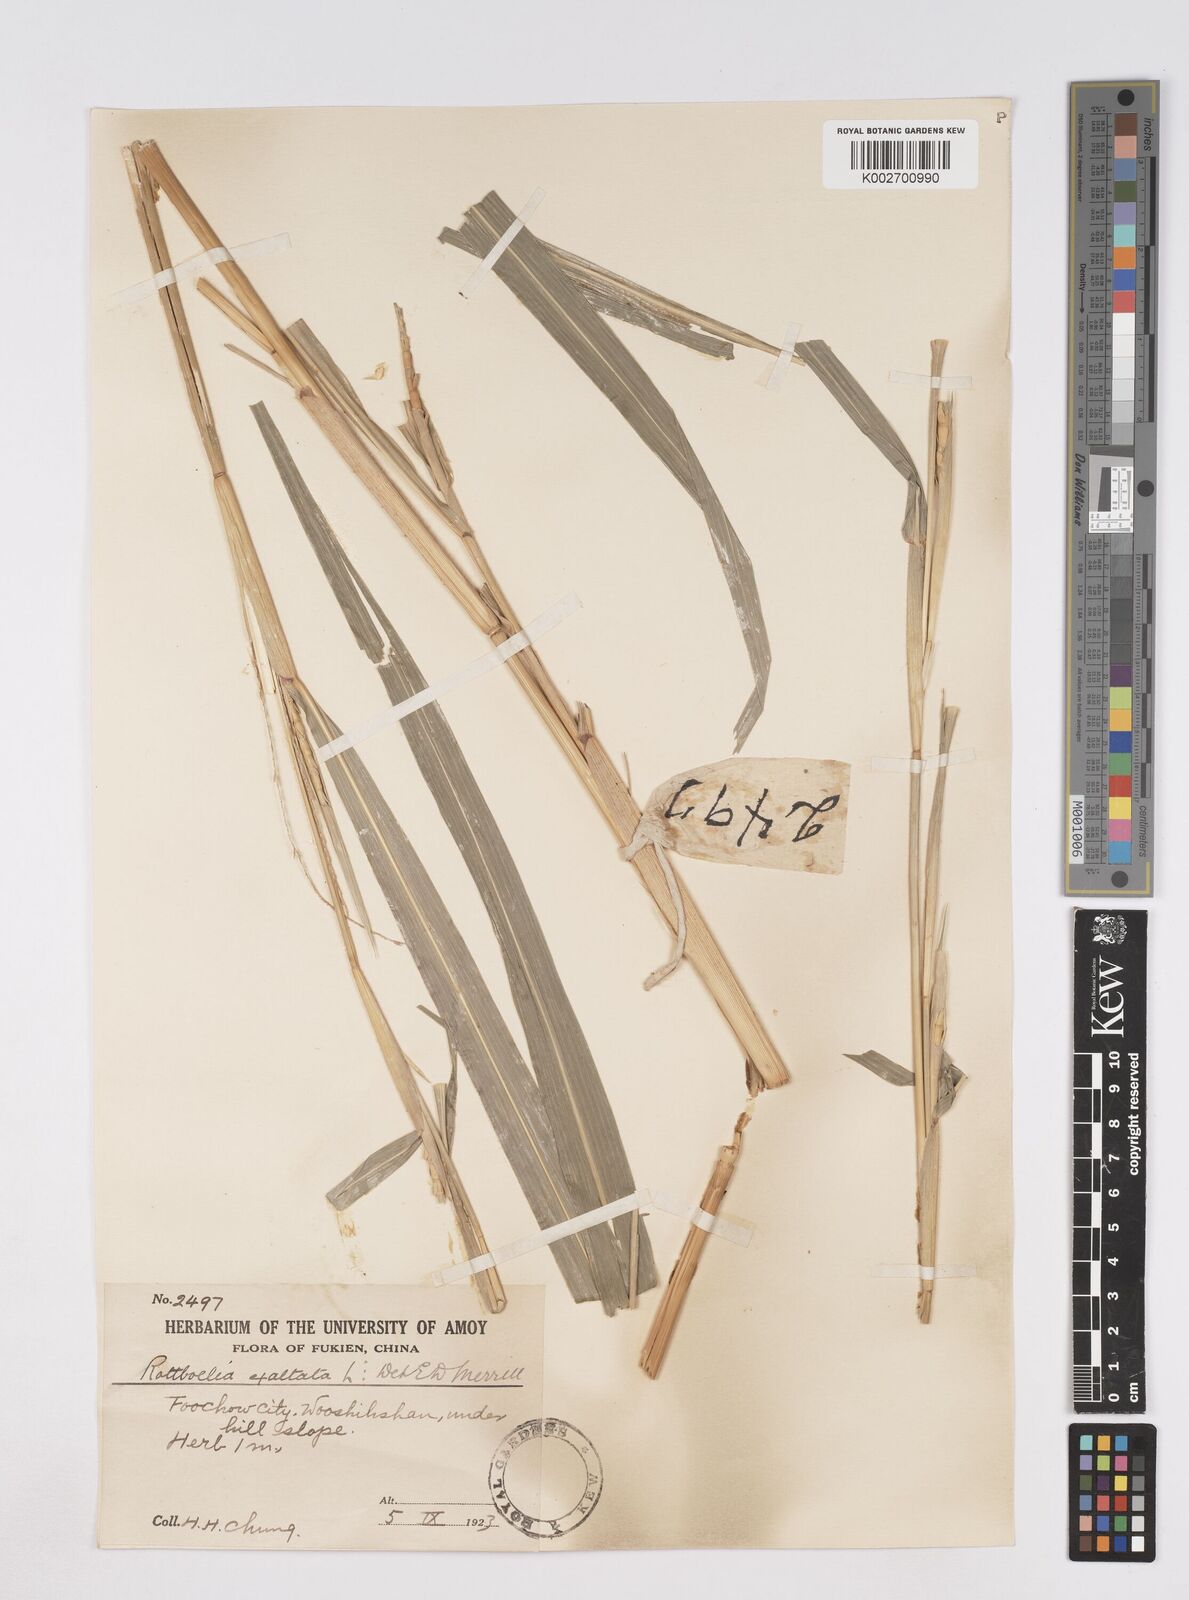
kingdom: Plantae
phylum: Tracheophyta
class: Liliopsida
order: Poales
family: Poaceae
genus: Ophiuros
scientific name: Ophiuros exaltatus
